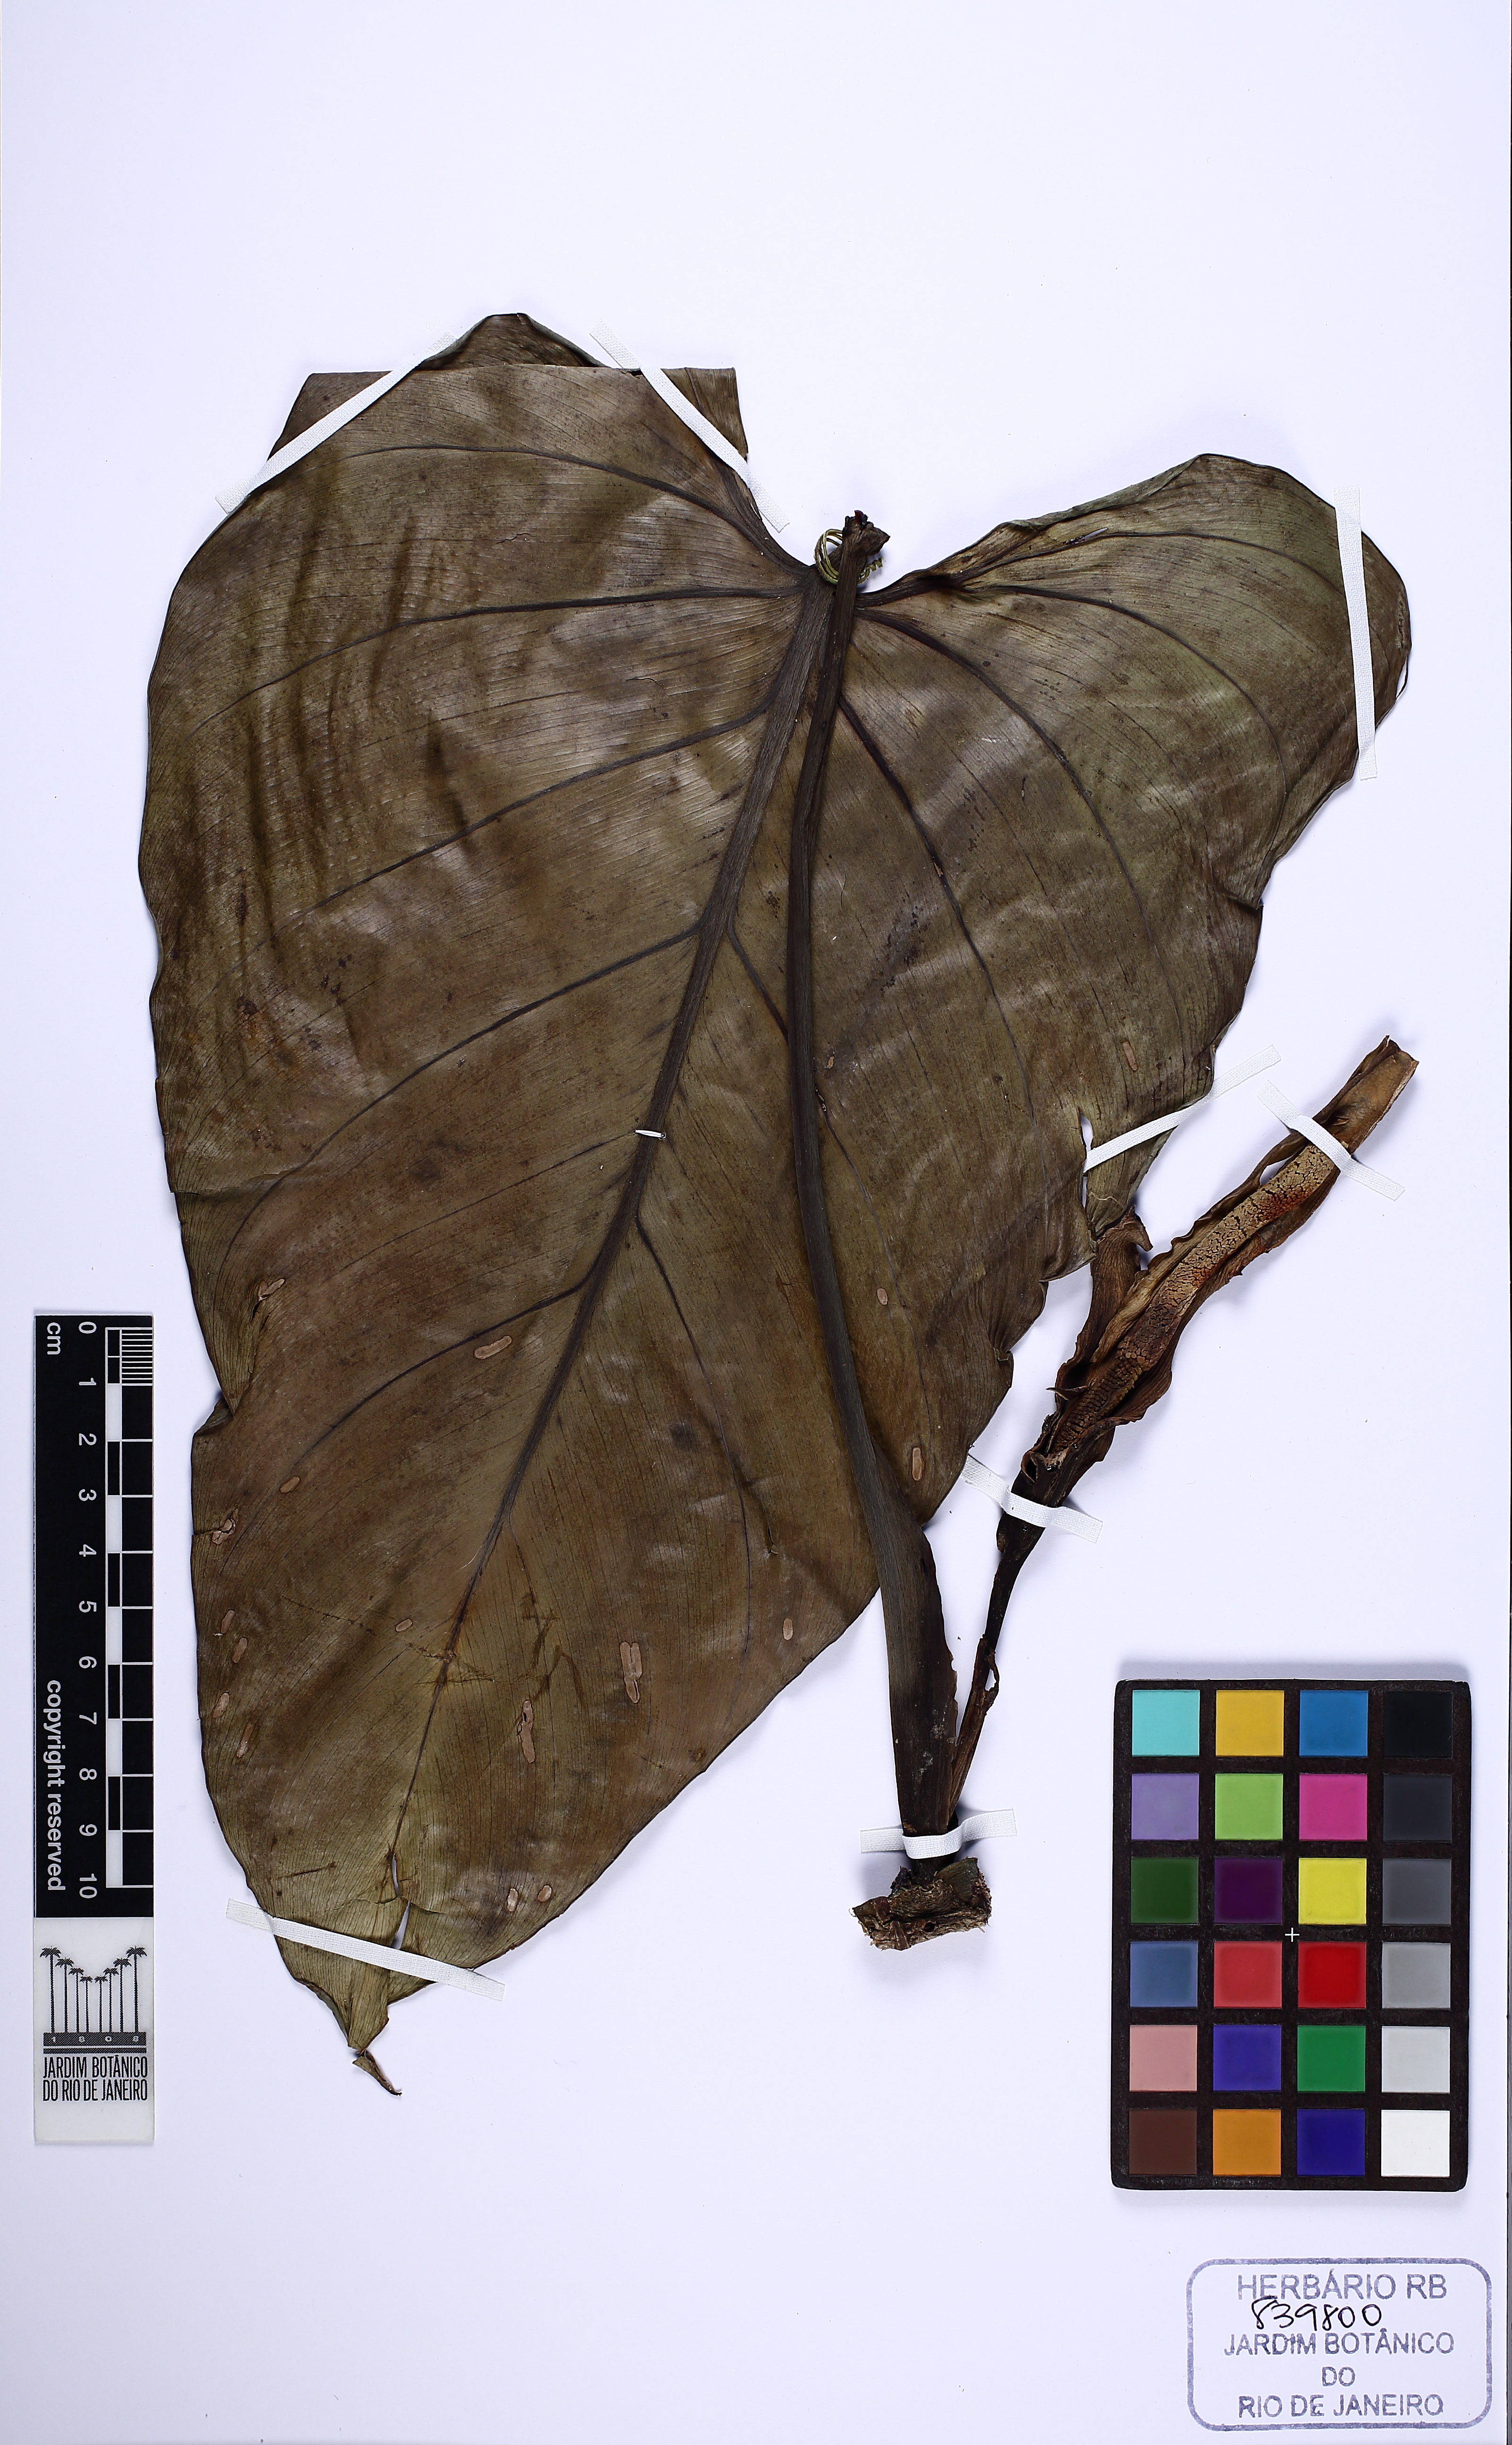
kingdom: Plantae
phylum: Tracheophyta
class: Liliopsida
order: Alismatales
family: Araceae
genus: Philodendron
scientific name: Philodendron fragile
